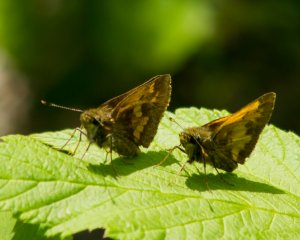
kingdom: Animalia
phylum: Arthropoda
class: Insecta
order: Lepidoptera
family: Hesperiidae
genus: Lon
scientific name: Lon hobomok
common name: Hobomok Skipper
